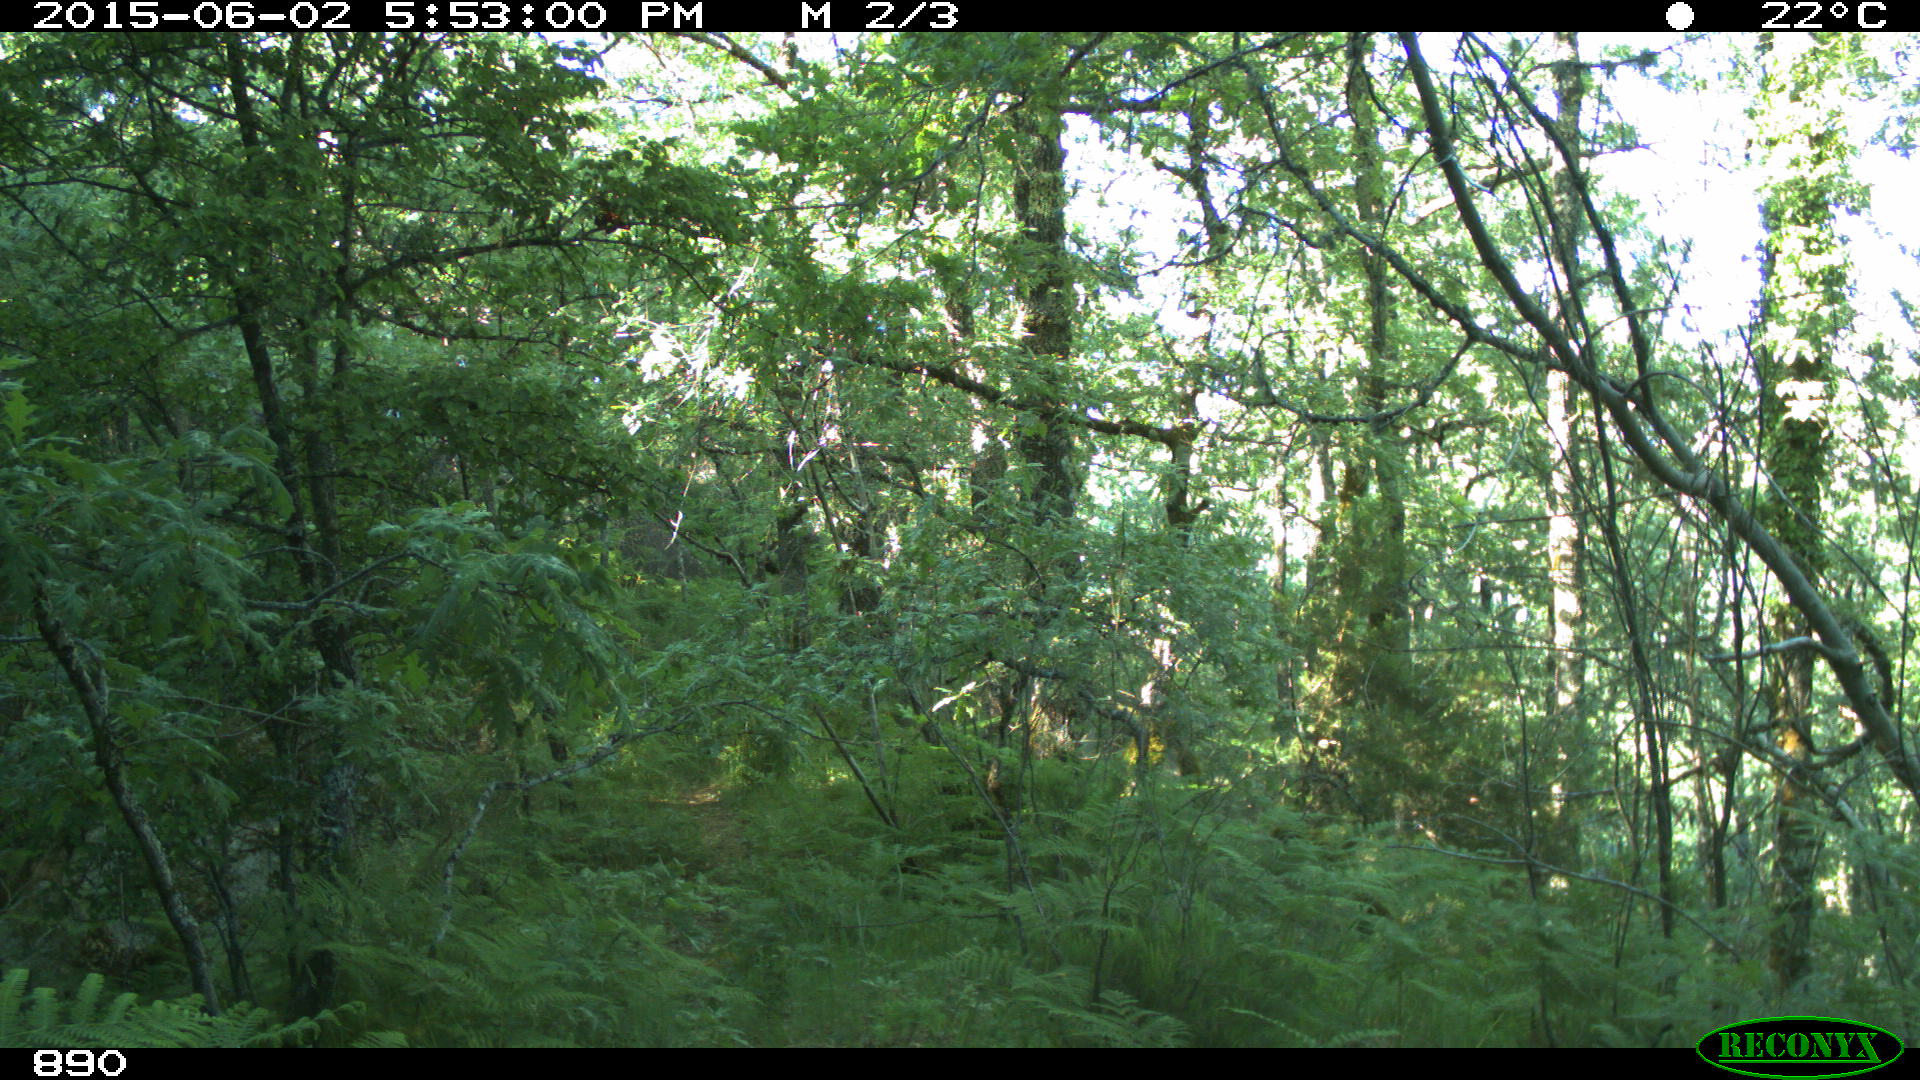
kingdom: Animalia
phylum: Chordata
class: Mammalia
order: Perissodactyla
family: Equidae
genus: Equus
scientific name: Equus caballus
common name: Horse
